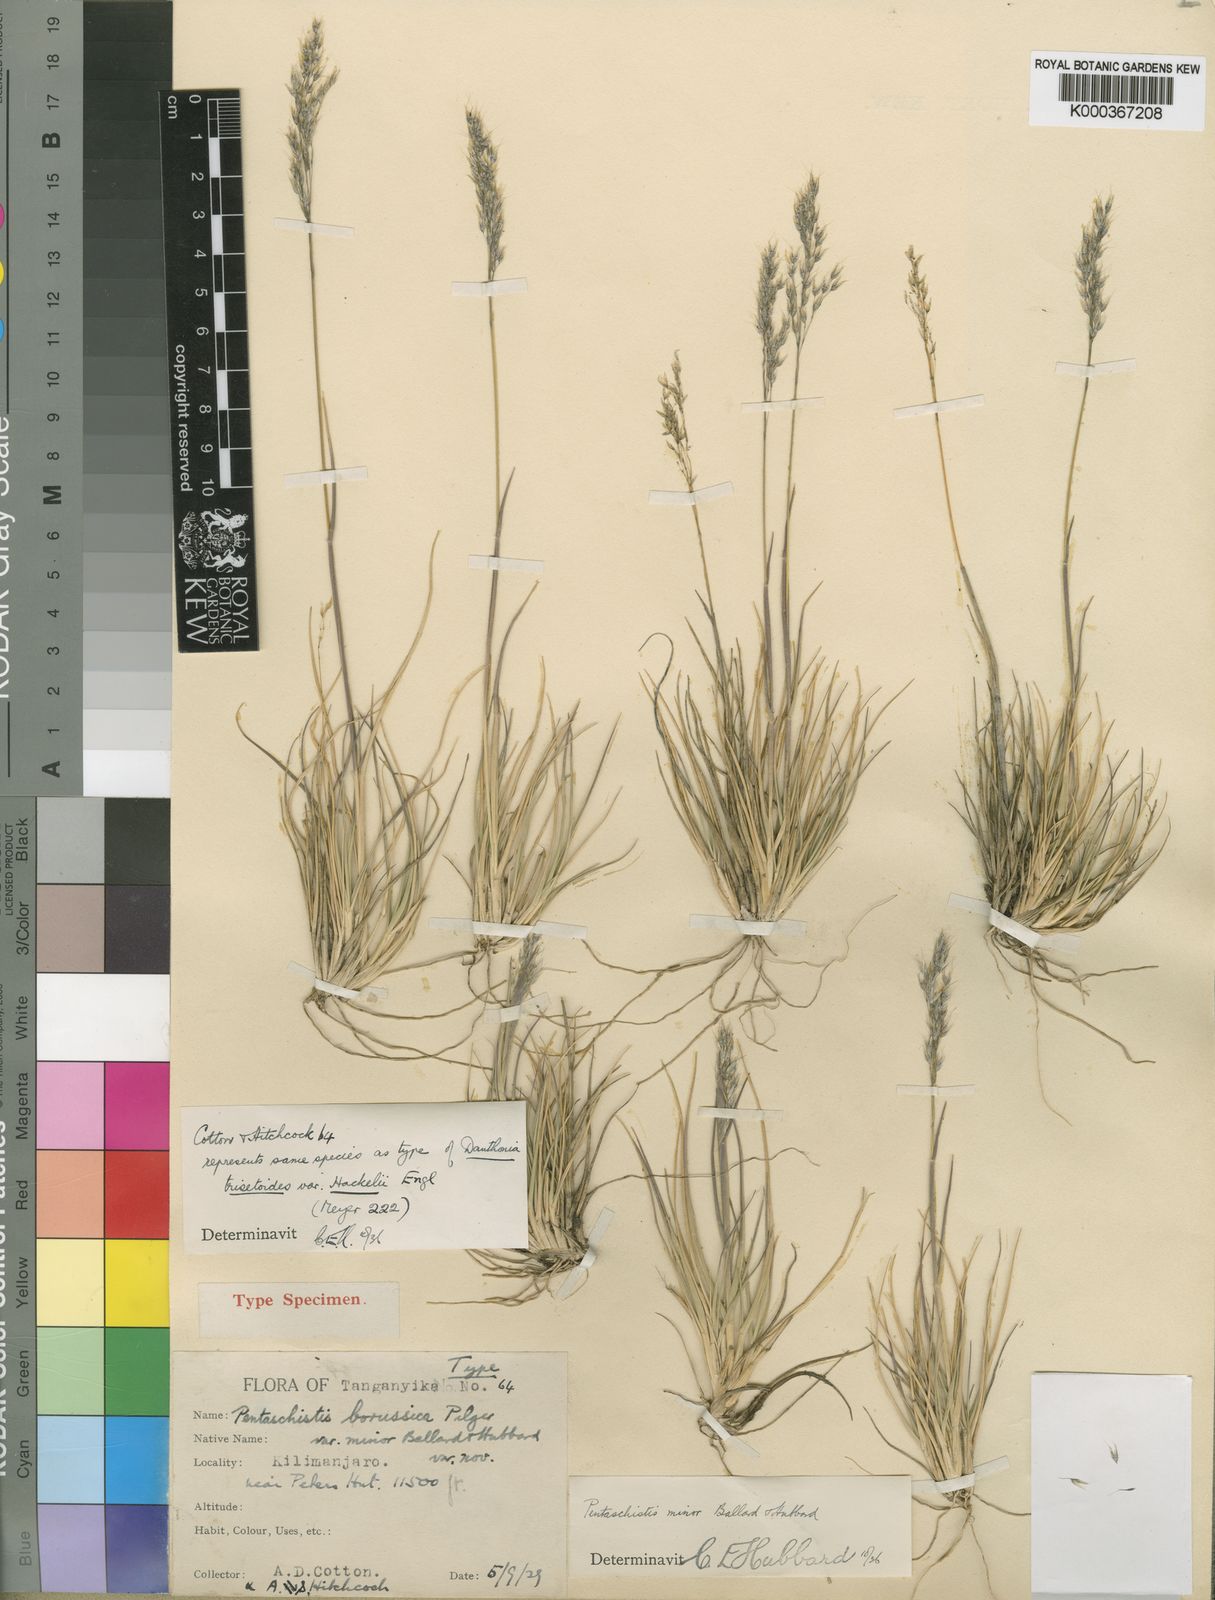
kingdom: Plantae
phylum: Tracheophyta
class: Liliopsida
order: Poales
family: Poaceae
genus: Pentameris
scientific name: Pentameris minor
